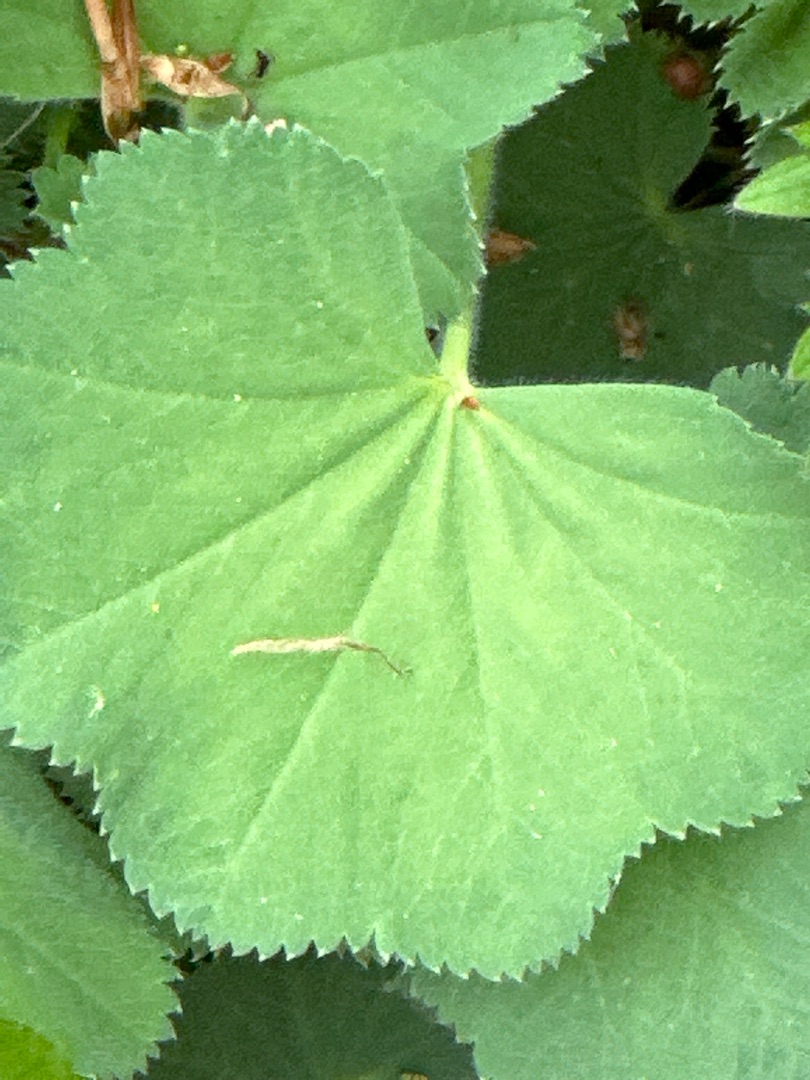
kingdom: Plantae
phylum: Tracheophyta
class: Magnoliopsida
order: Rosales
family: Rosaceae
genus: Alchemilla
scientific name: Alchemilla mollis
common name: Lådden løvefod
